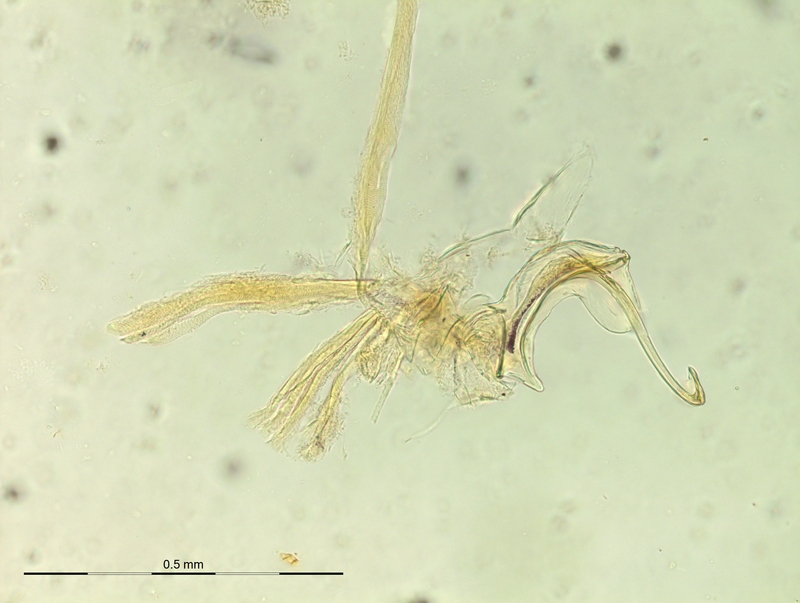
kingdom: Animalia
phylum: Arthropoda
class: Diplopoda
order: Chordeumatida
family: Craspedosomatidae
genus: Dactylophorosoma
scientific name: Dactylophorosoma nivisatelles
